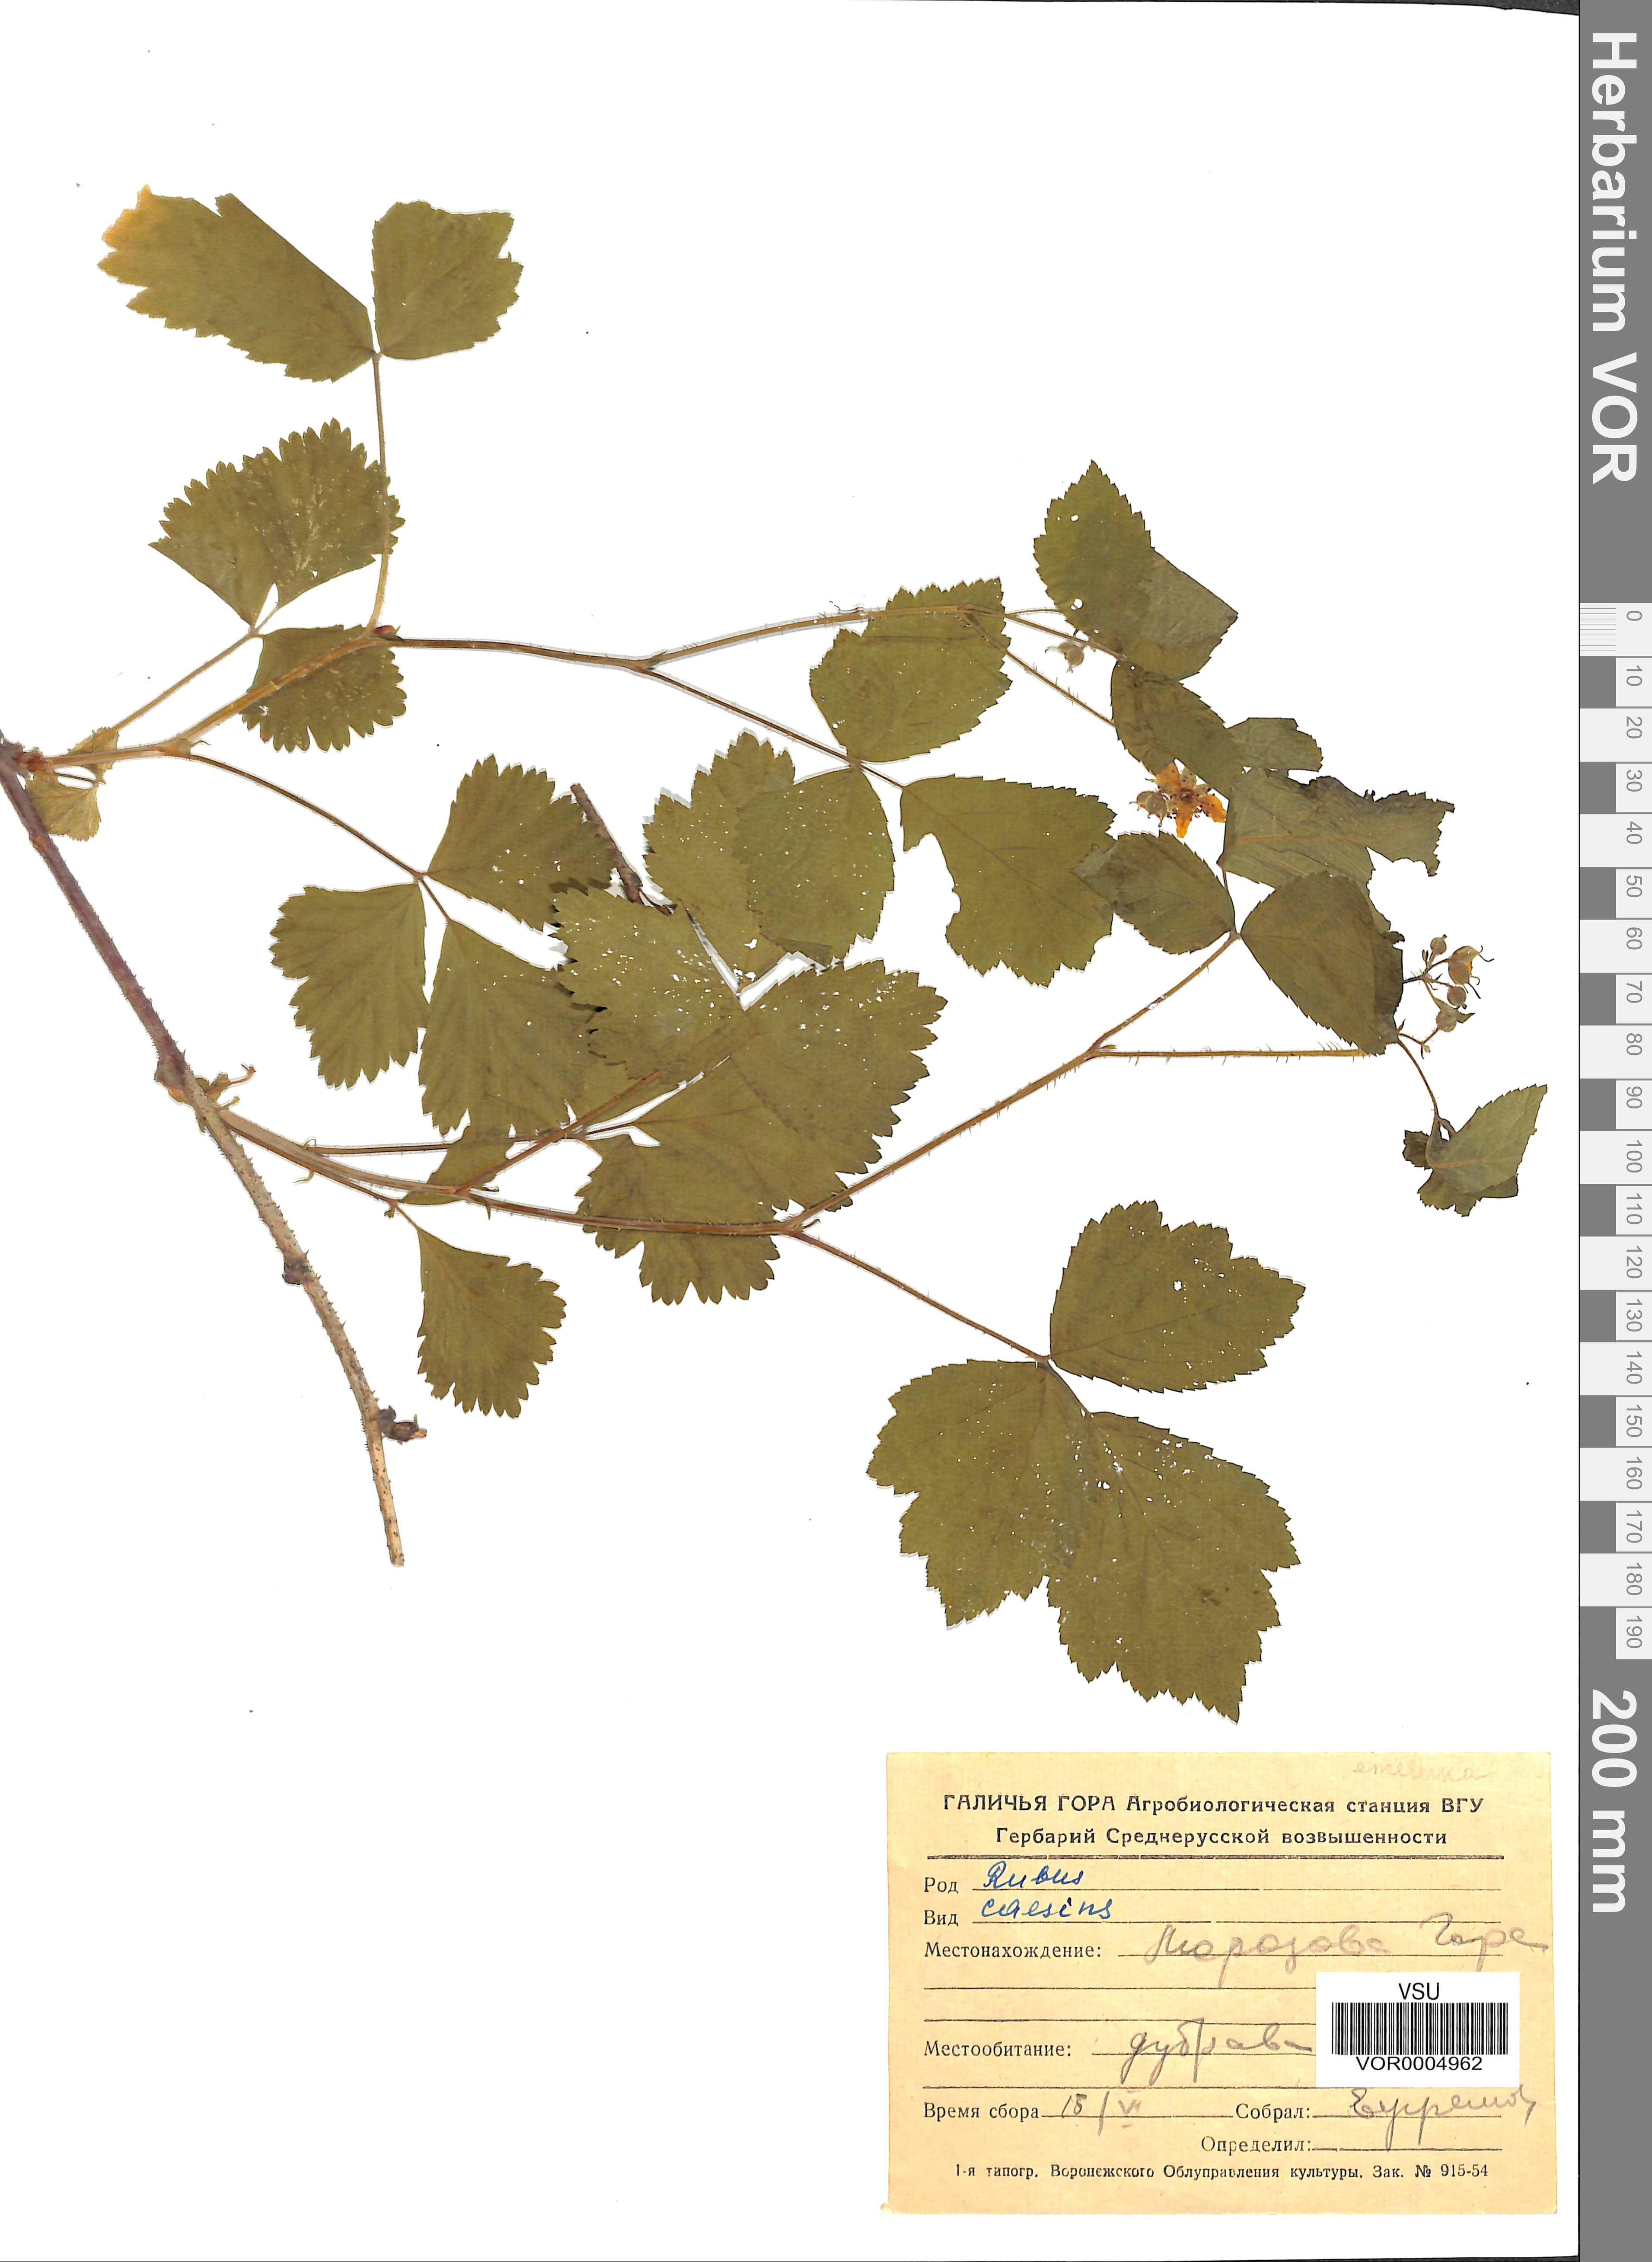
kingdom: Plantae
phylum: Tracheophyta
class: Magnoliopsida
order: Rosales
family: Rosaceae
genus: Rubus
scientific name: Rubus caesius
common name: Dewberry
